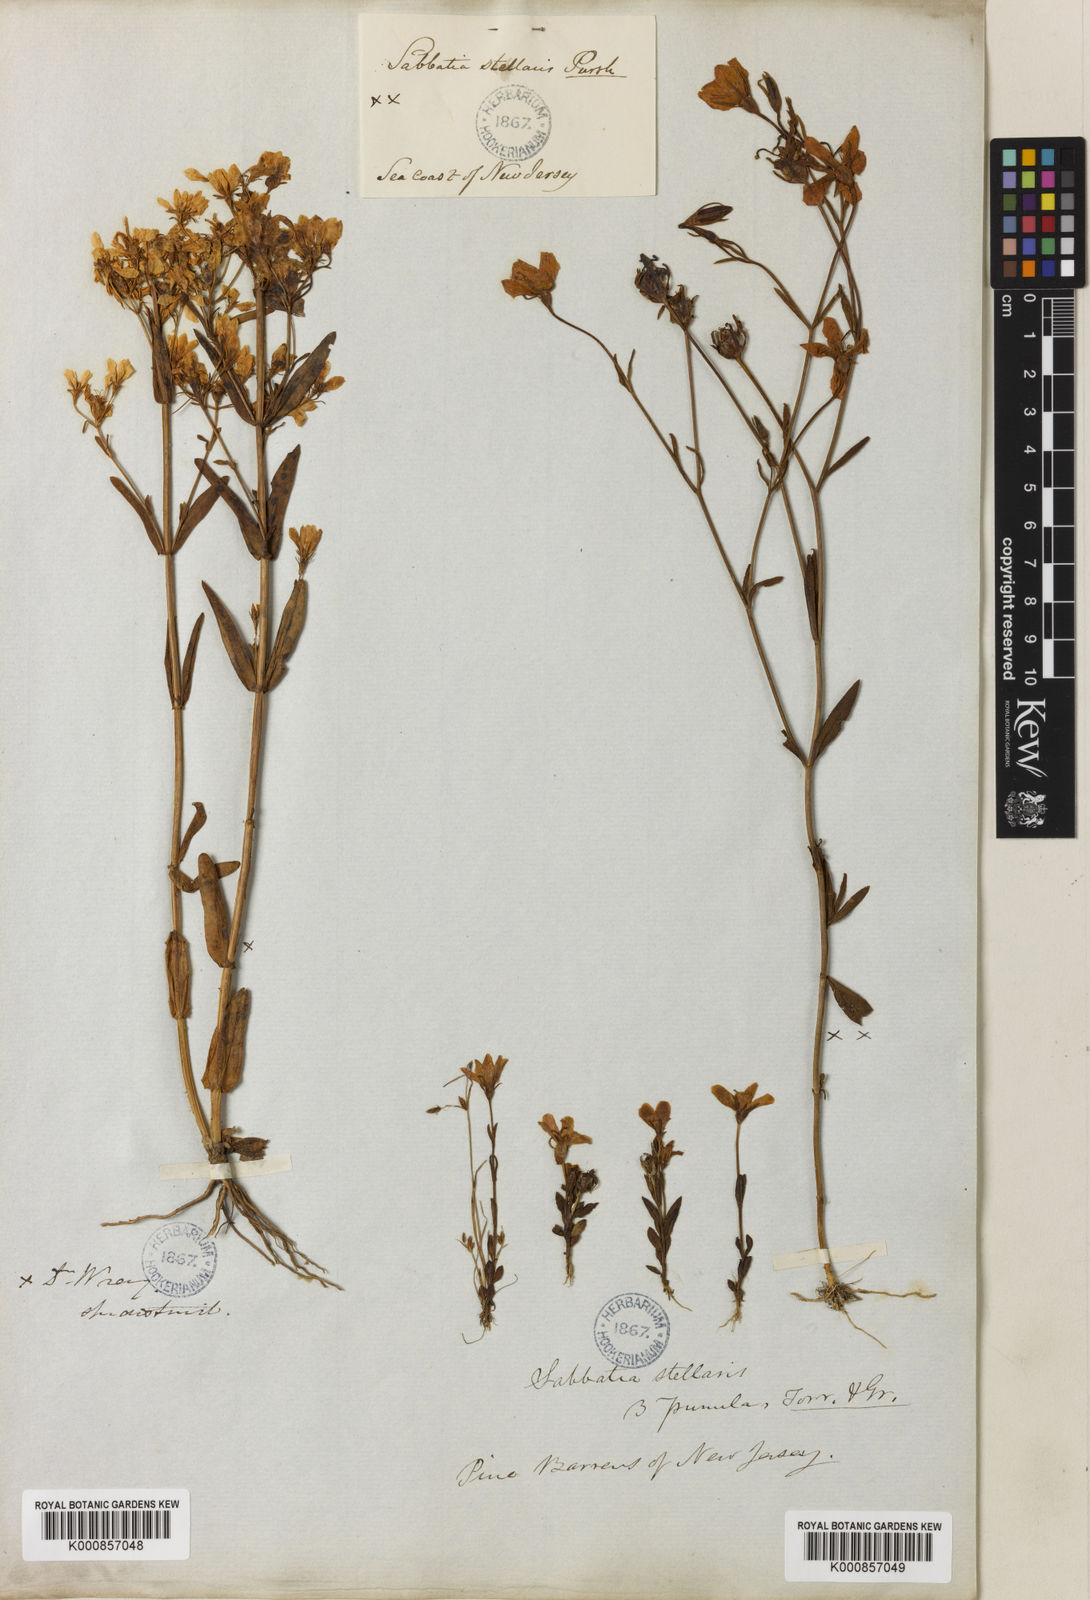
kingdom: Plantae
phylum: Tracheophyta
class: Magnoliopsida
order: Gentianales
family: Gentianaceae
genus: Sabatia
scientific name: Sabatia stellaris
